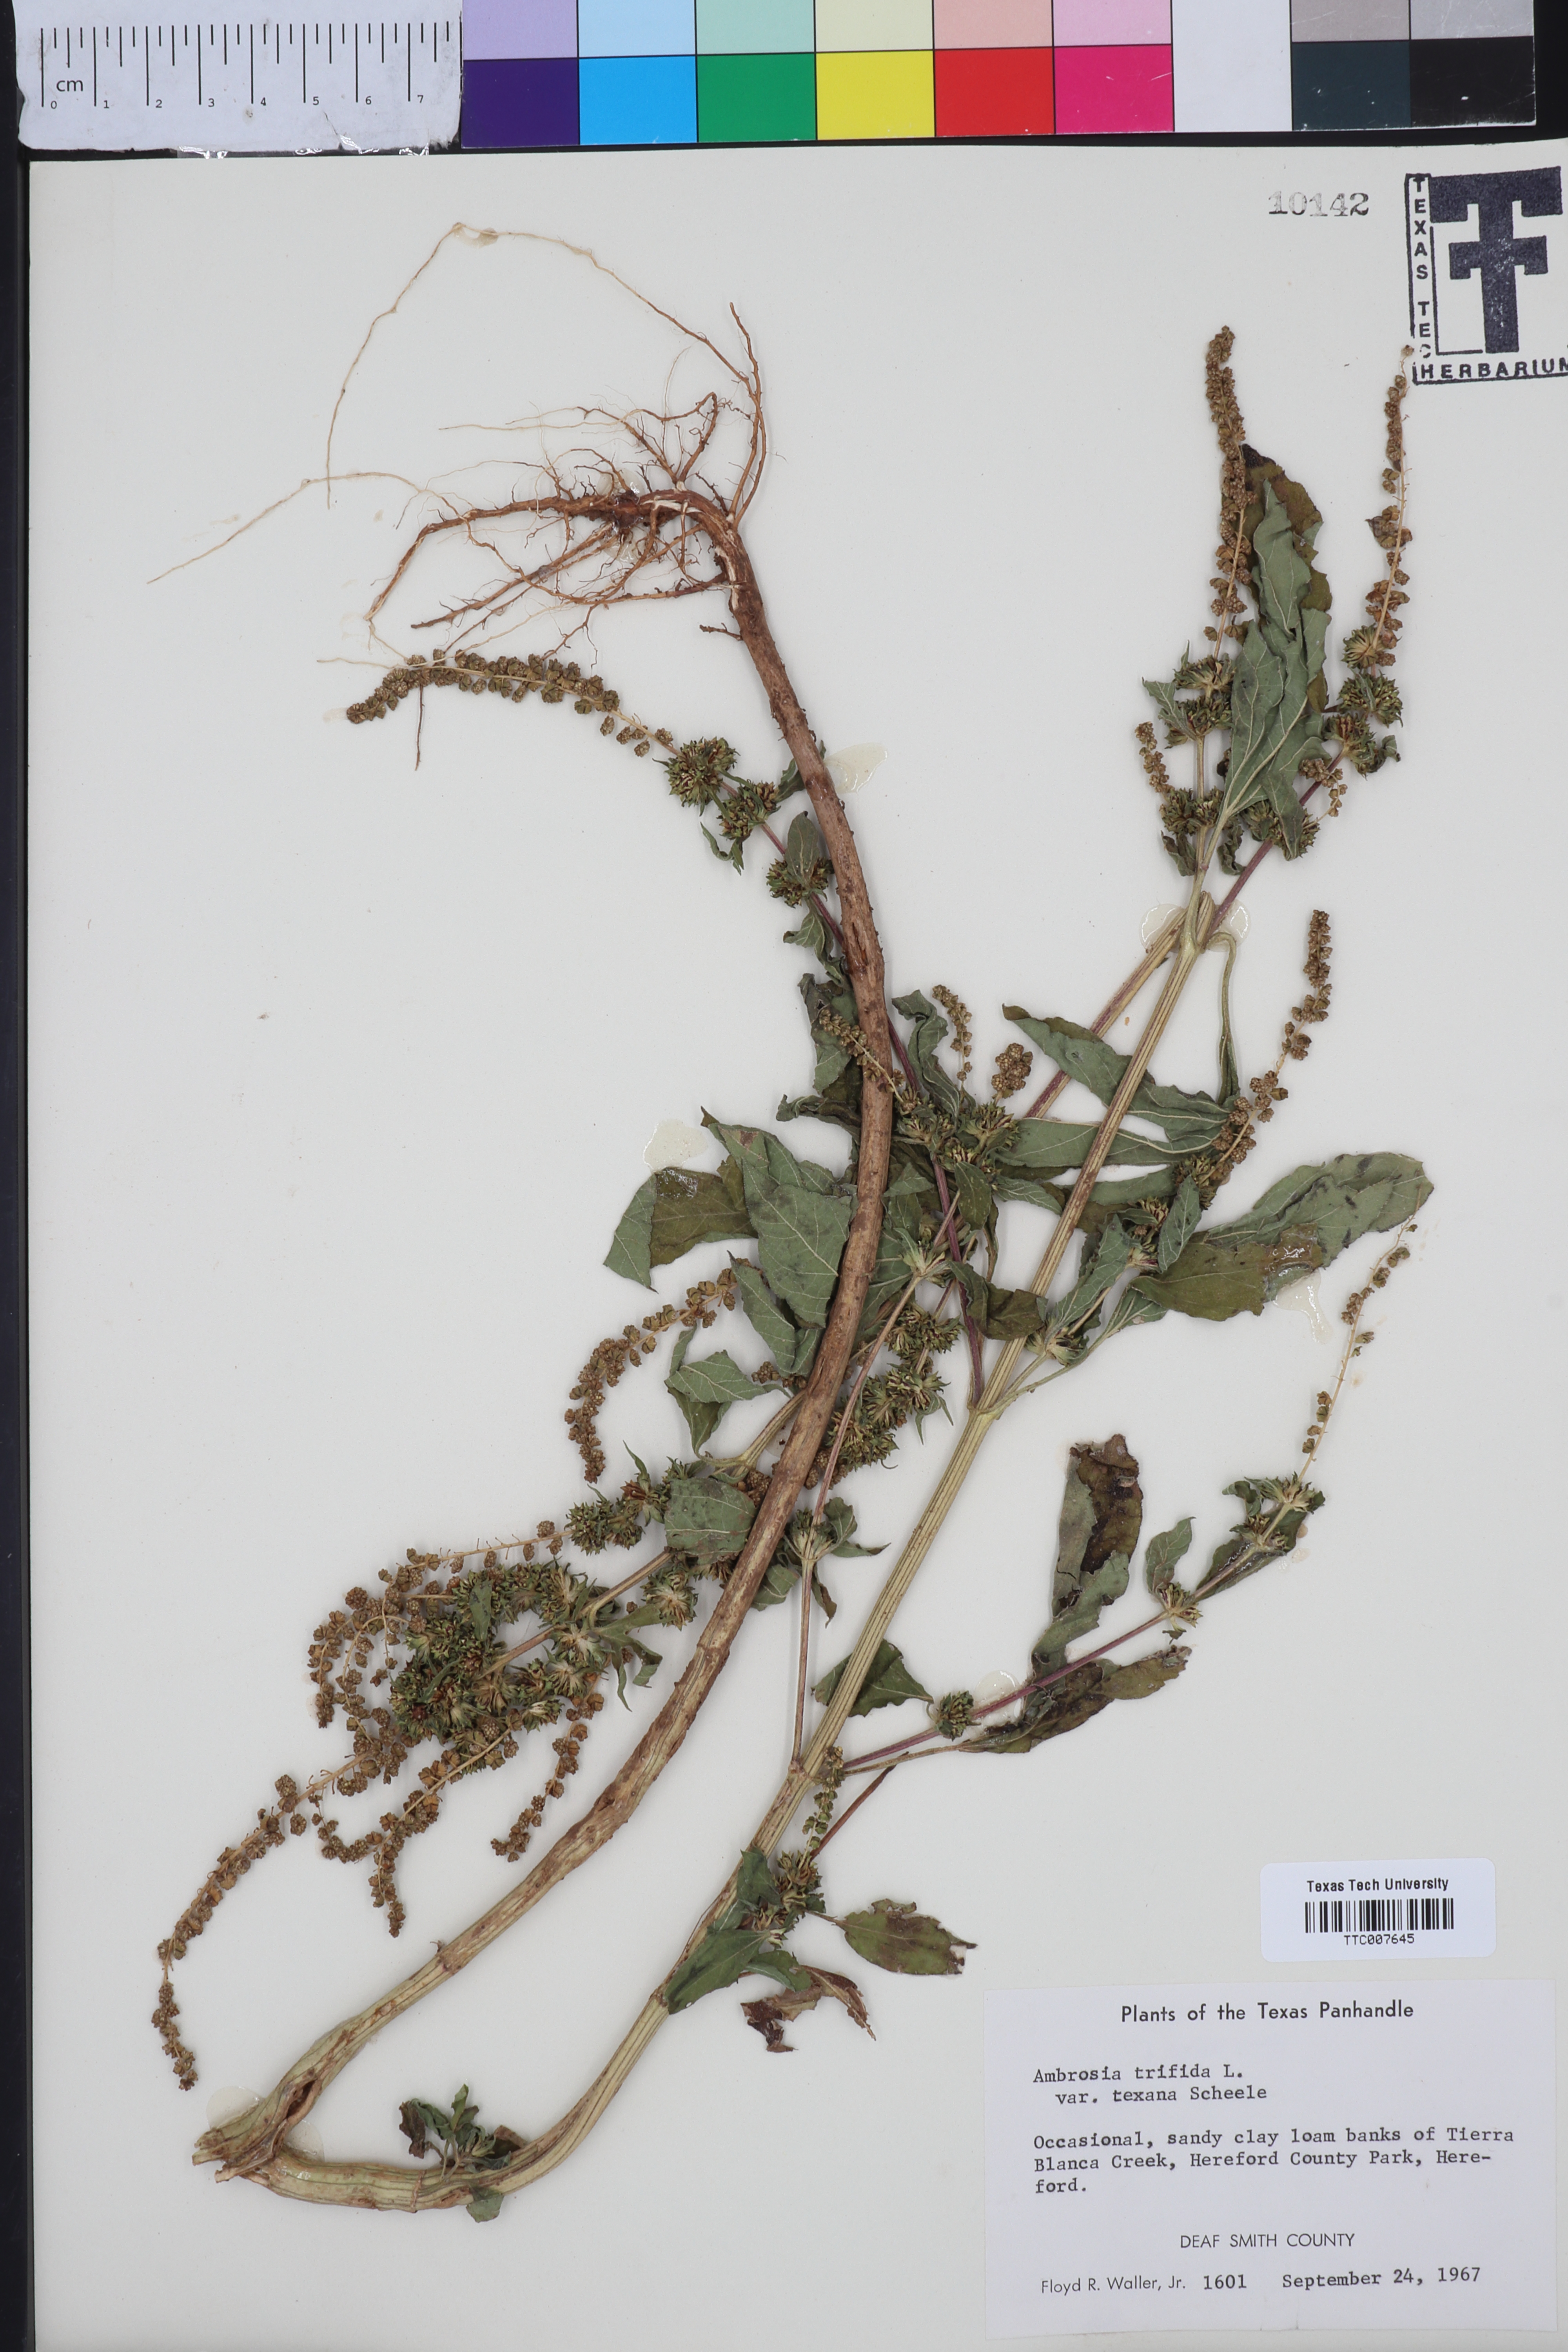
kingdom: Plantae
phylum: Tracheophyta
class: Magnoliopsida
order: Asterales
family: Asteraceae
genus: Ambrosia
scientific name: Ambrosia trifida
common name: Giant ragweed
